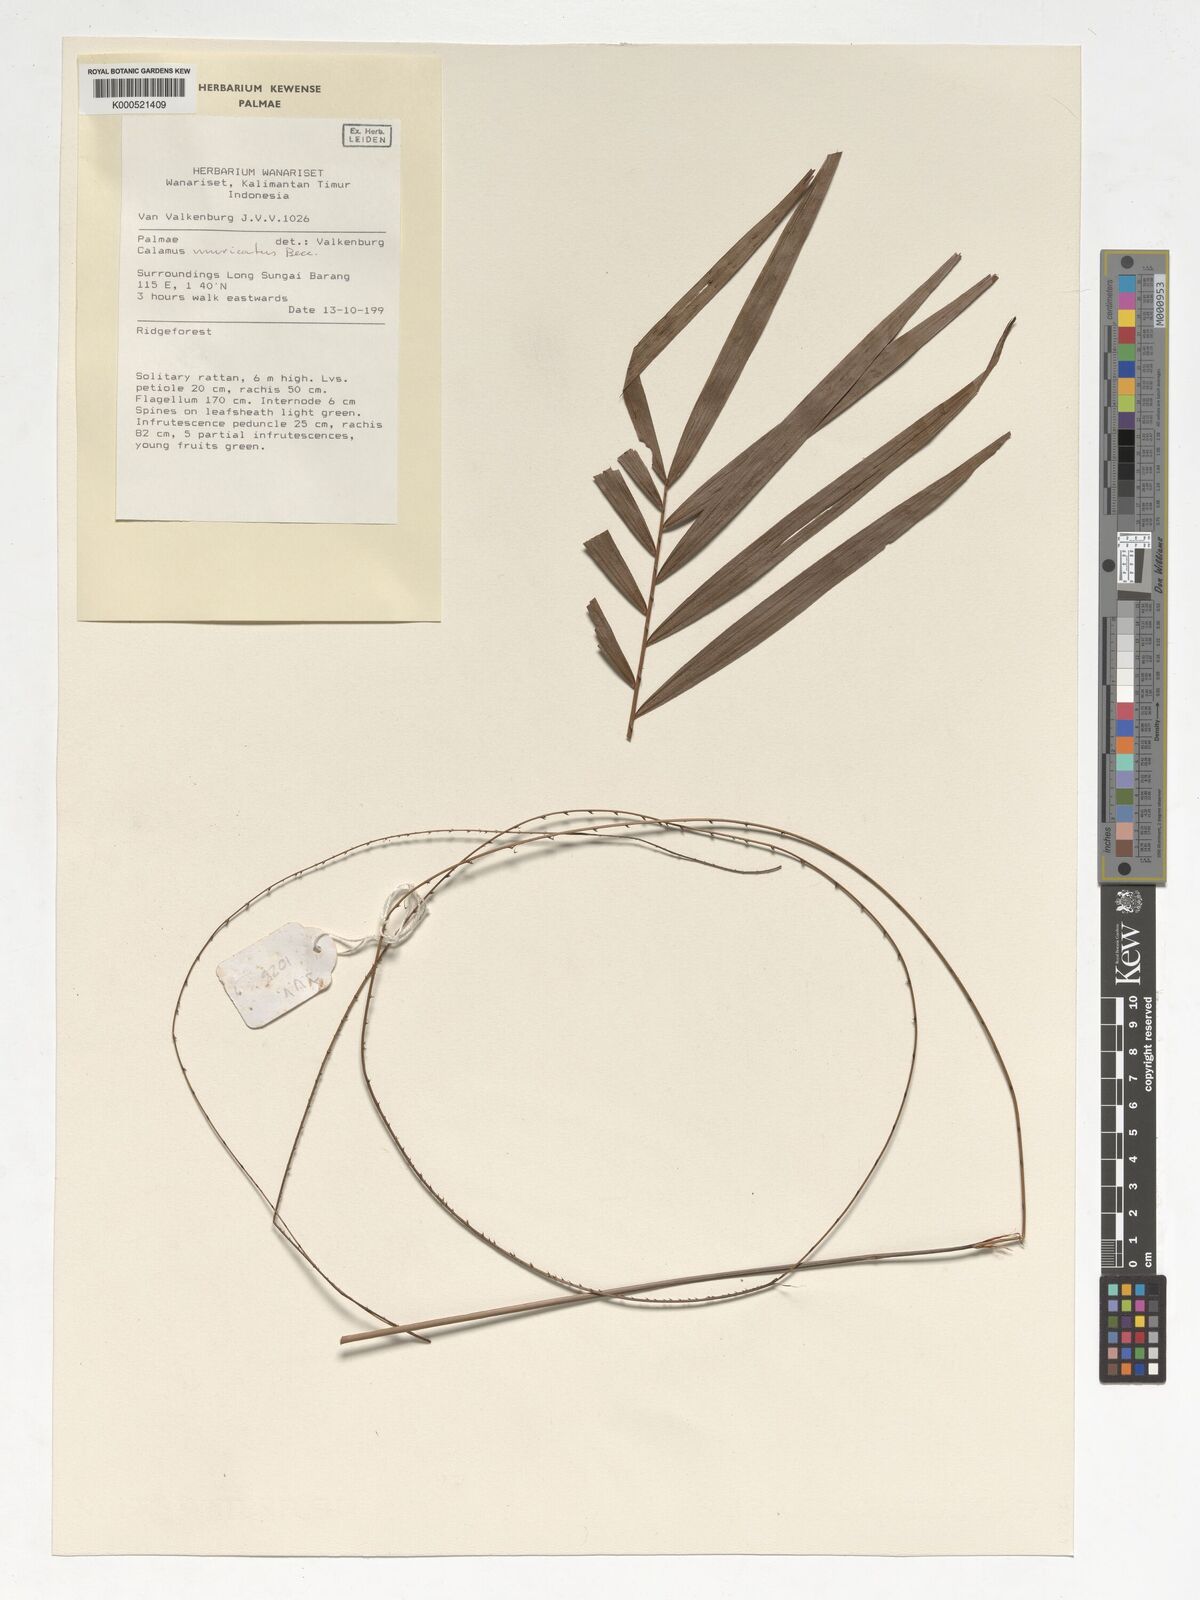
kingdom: Plantae
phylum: Tracheophyta
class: Liliopsida
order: Arecales
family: Arecaceae
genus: Calamus
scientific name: Calamus muricatus
